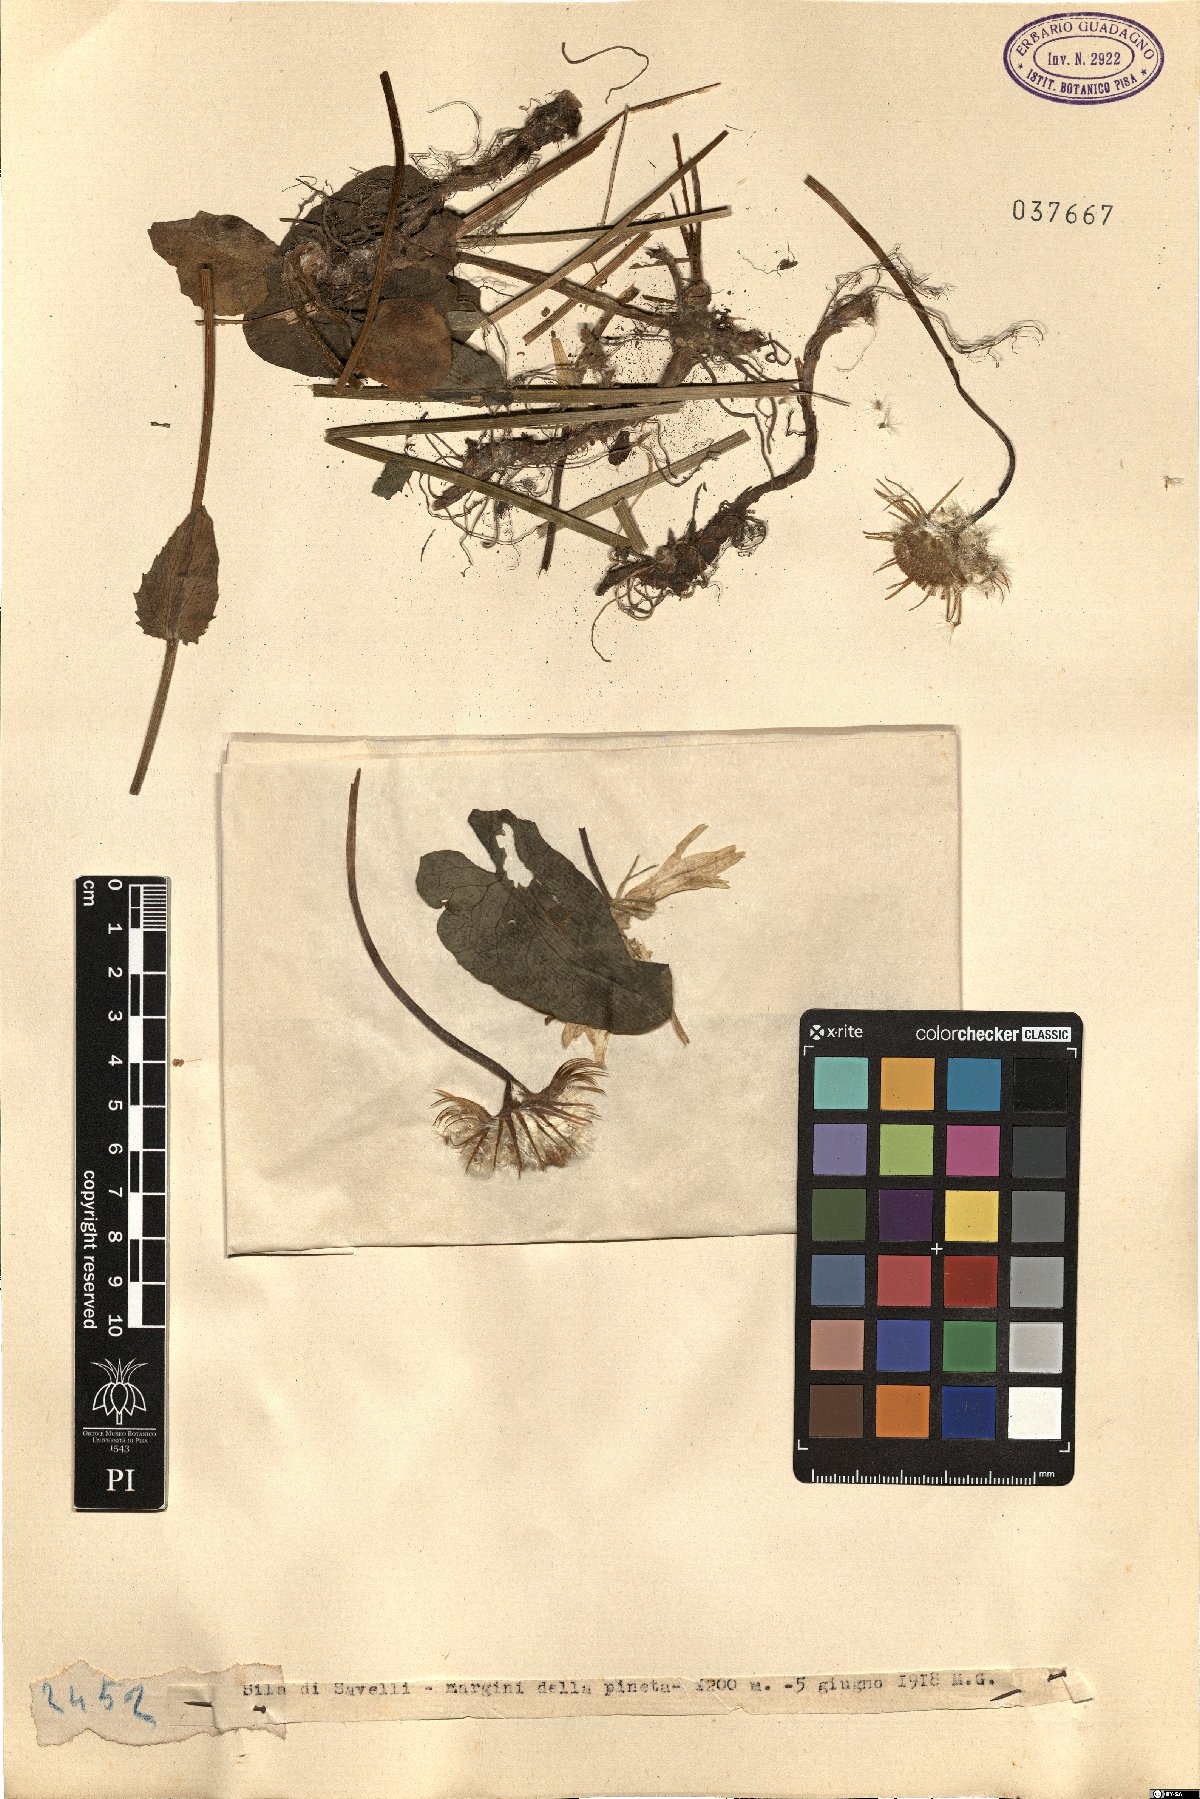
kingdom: Plantae
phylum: Tracheophyta
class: Magnoliopsida
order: Asterales
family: Asteraceae
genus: Doronicum
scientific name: Doronicum
